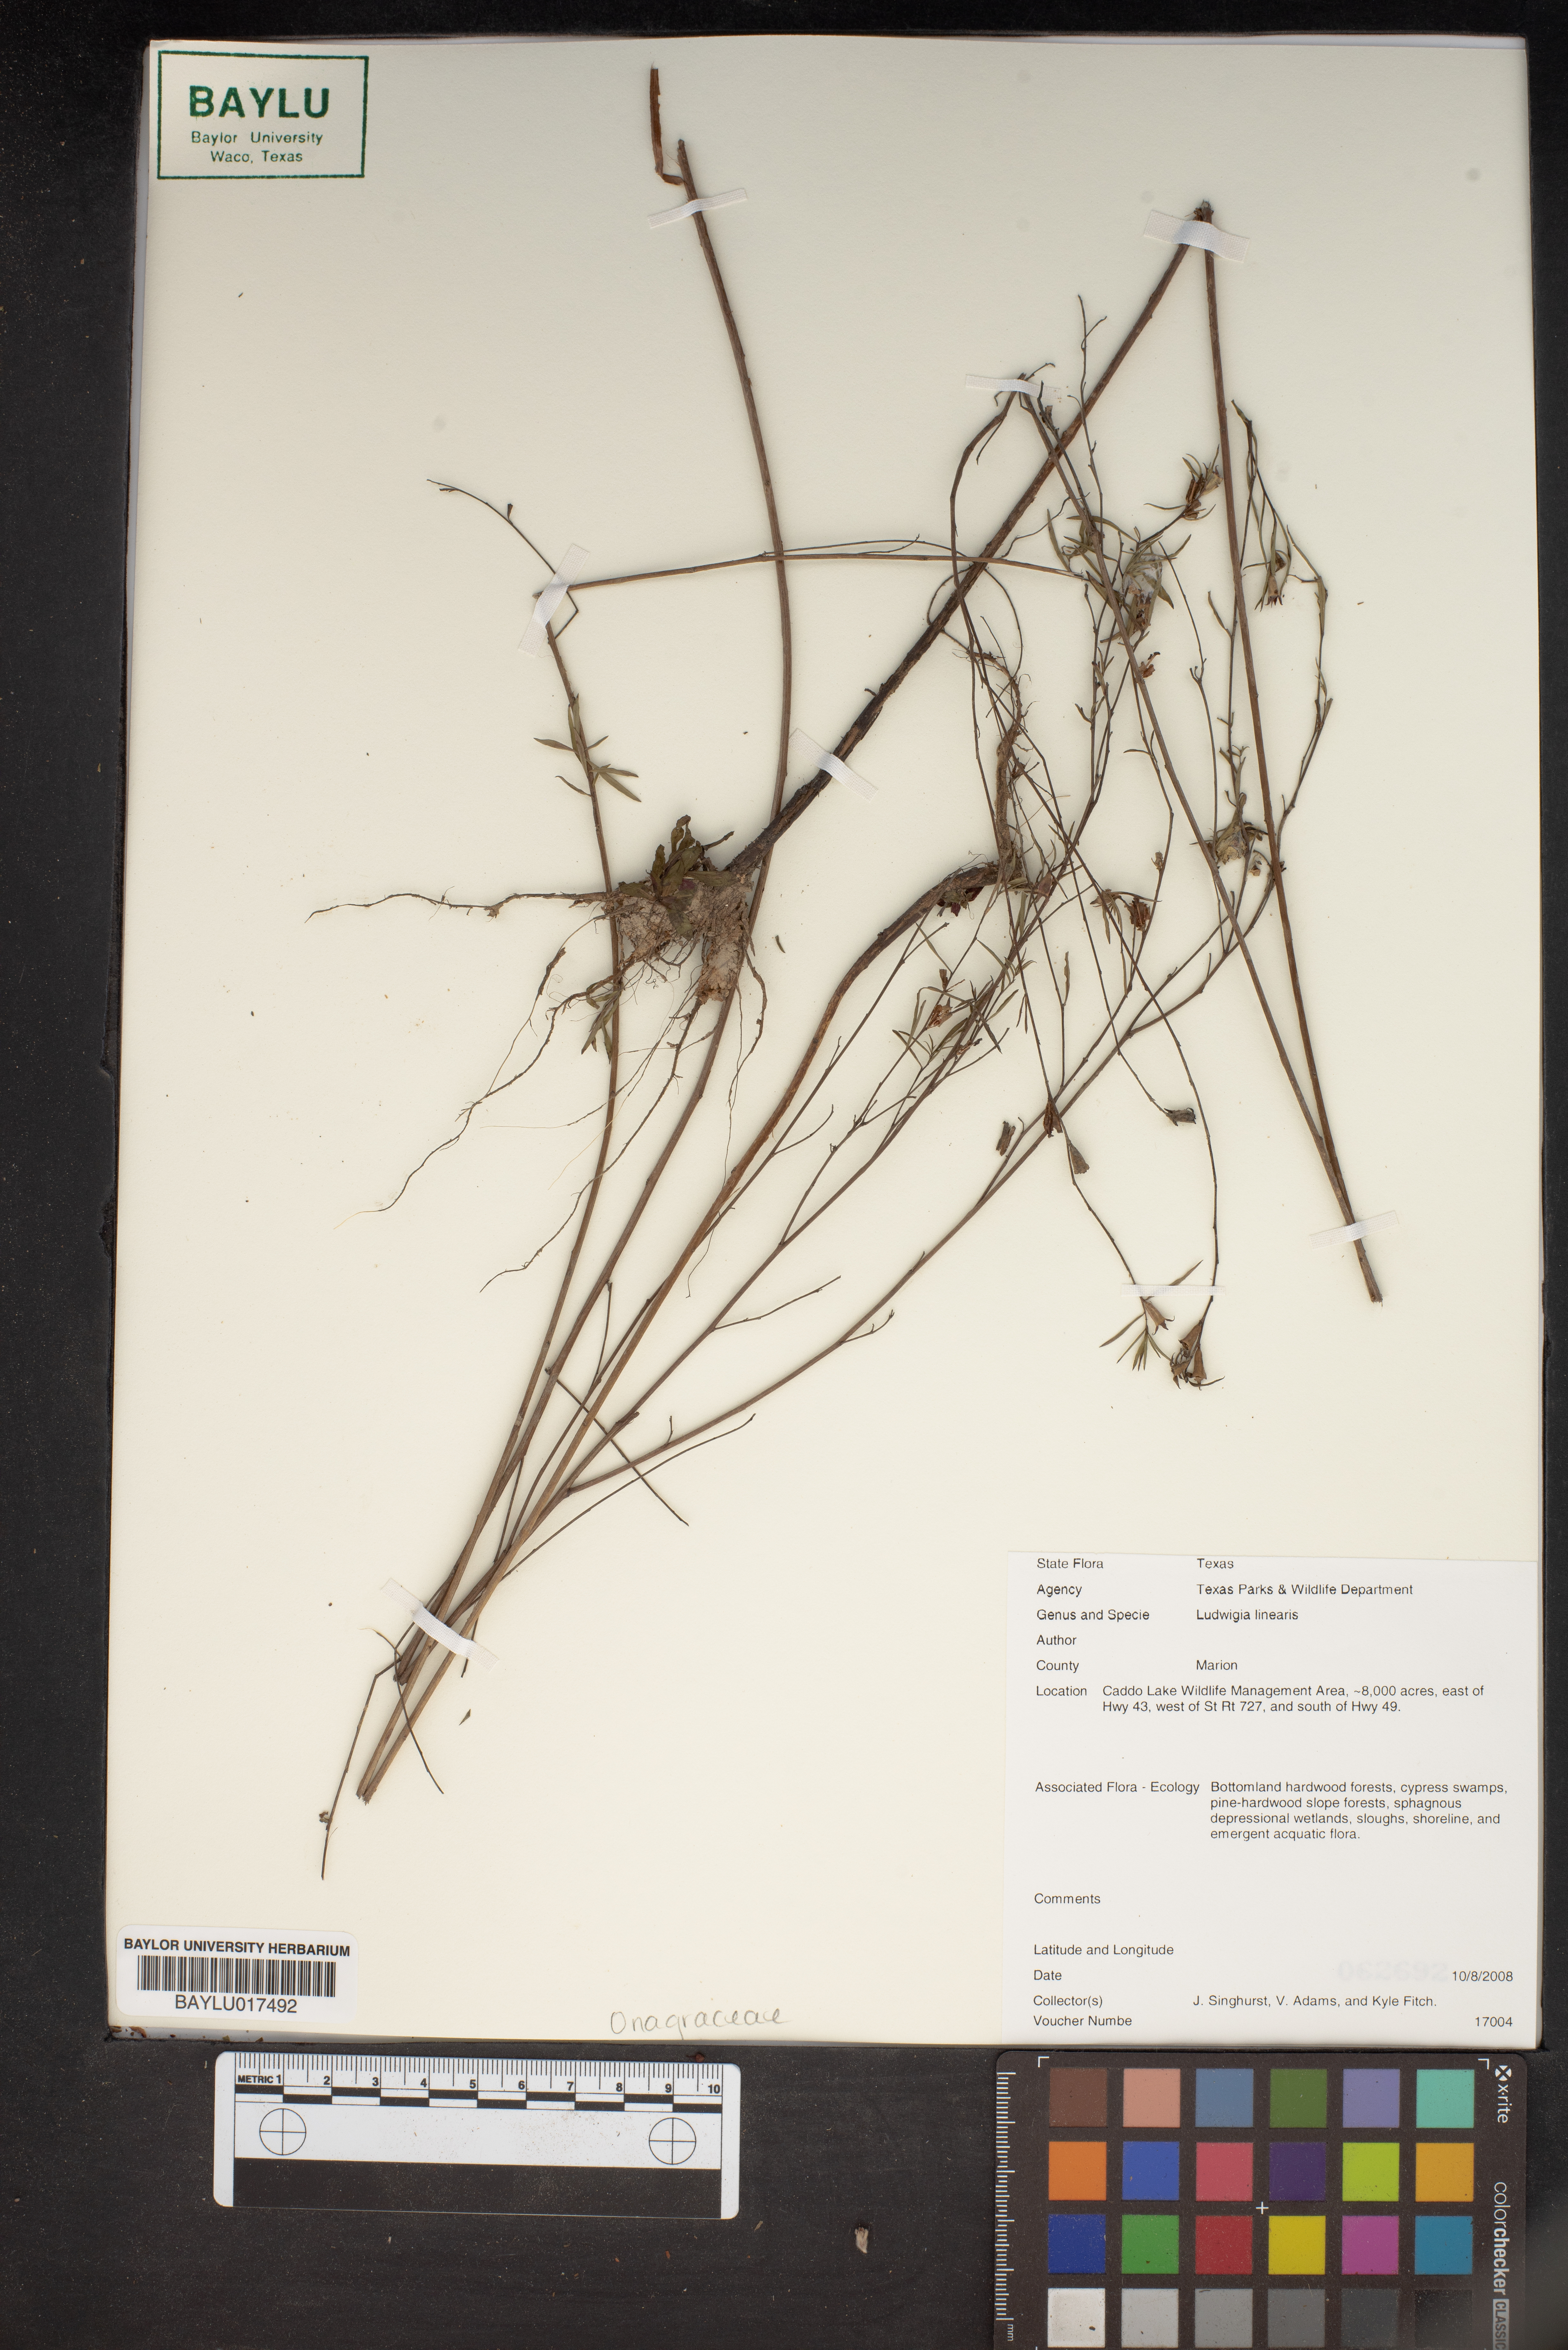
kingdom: Plantae
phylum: Tracheophyta
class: Magnoliopsida
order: Myrtales
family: Onagraceae
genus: Ludwigia
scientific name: Ludwigia linearis
